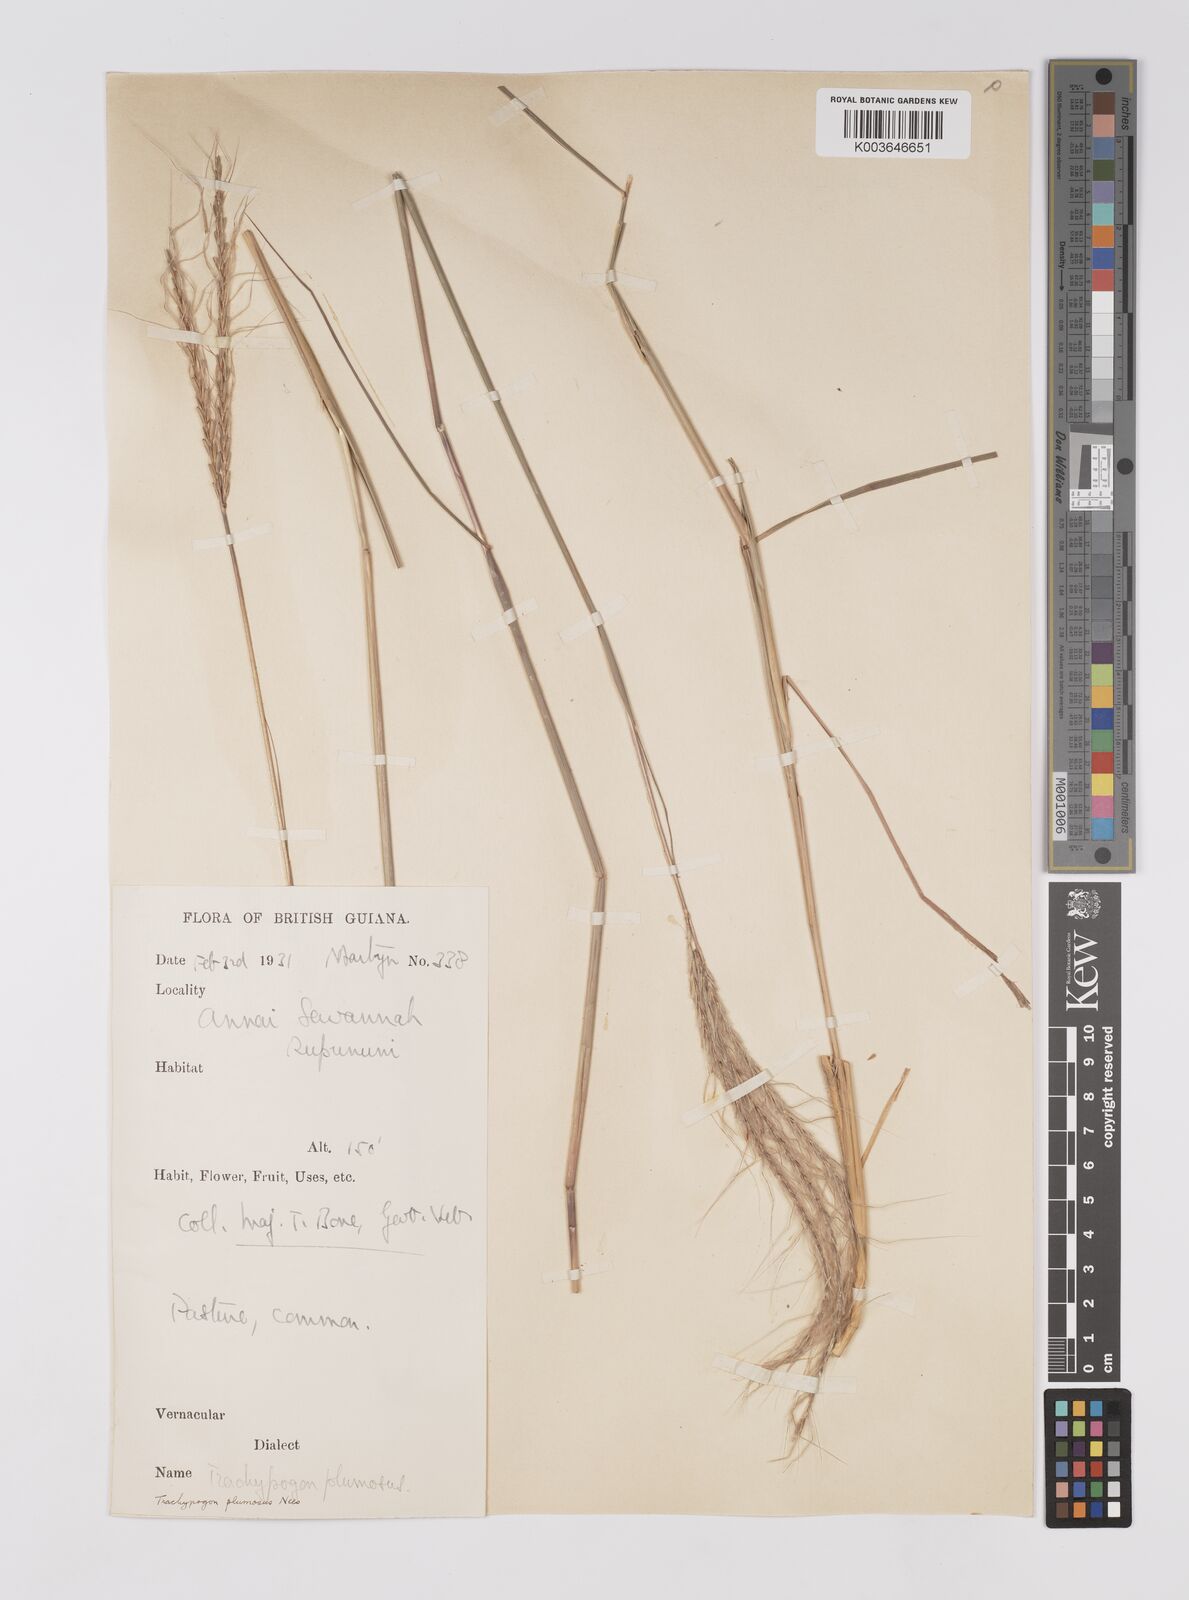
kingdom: Plantae
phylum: Tracheophyta
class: Liliopsida
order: Poales
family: Poaceae
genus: Trachypogon
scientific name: Trachypogon spicatus
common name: Crinkle-awn
